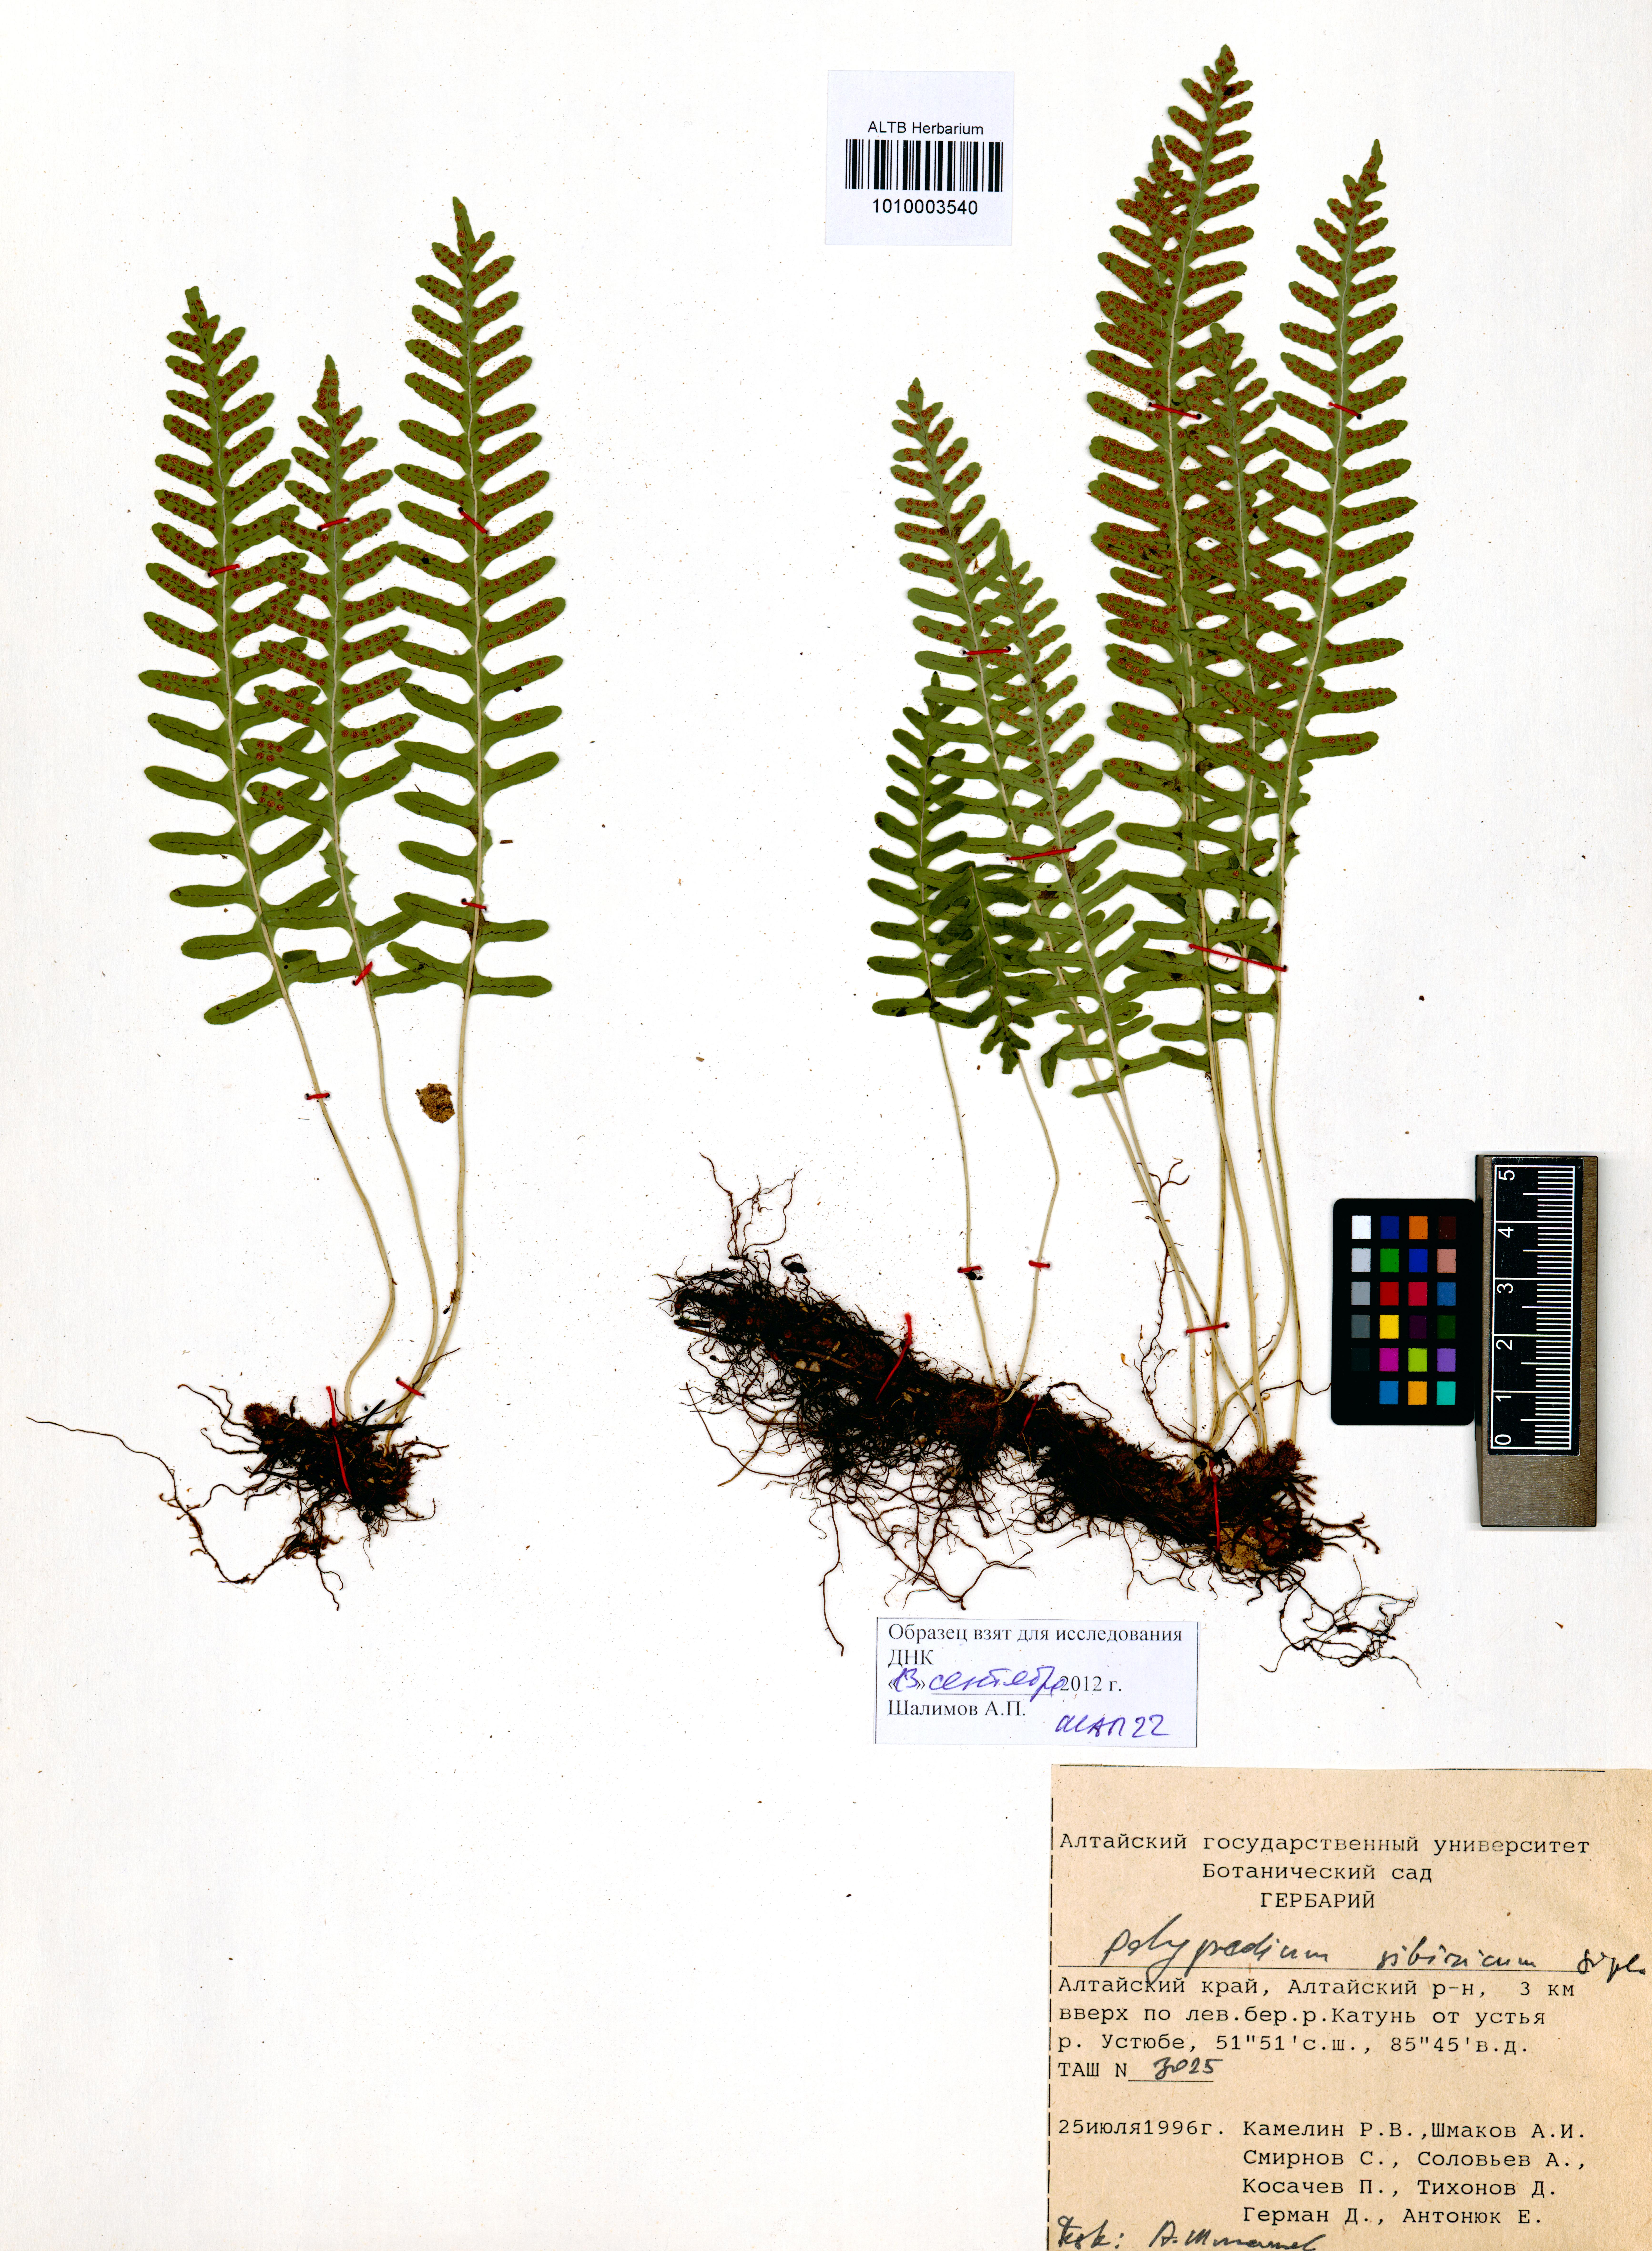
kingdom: Plantae
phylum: Tracheophyta
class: Polypodiopsida
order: Polypodiales
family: Polypodiaceae
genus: Polypodium
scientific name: Polypodium sibiricum
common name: Siberian polypody
